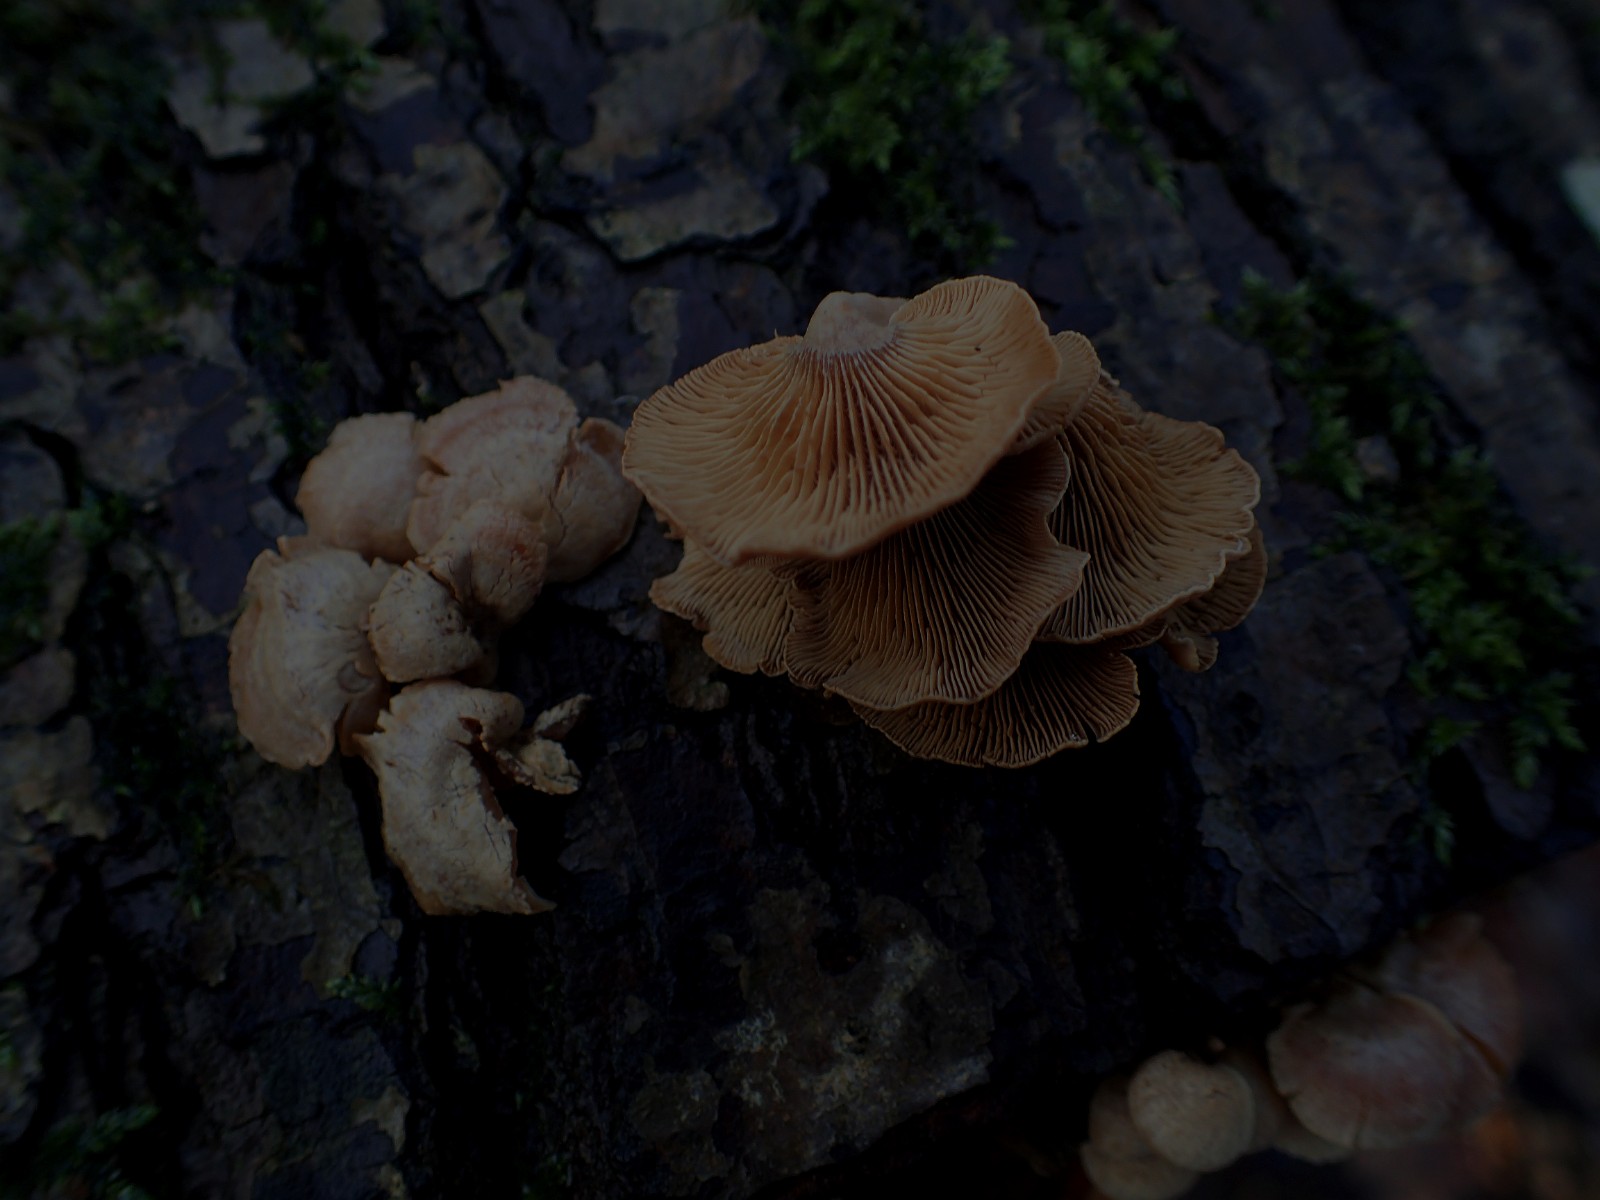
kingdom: Fungi
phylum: Basidiomycota
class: Agaricomycetes
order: Agaricales
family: Mycenaceae
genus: Panellus
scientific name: Panellus stipticus
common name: kliddet epaulethat
